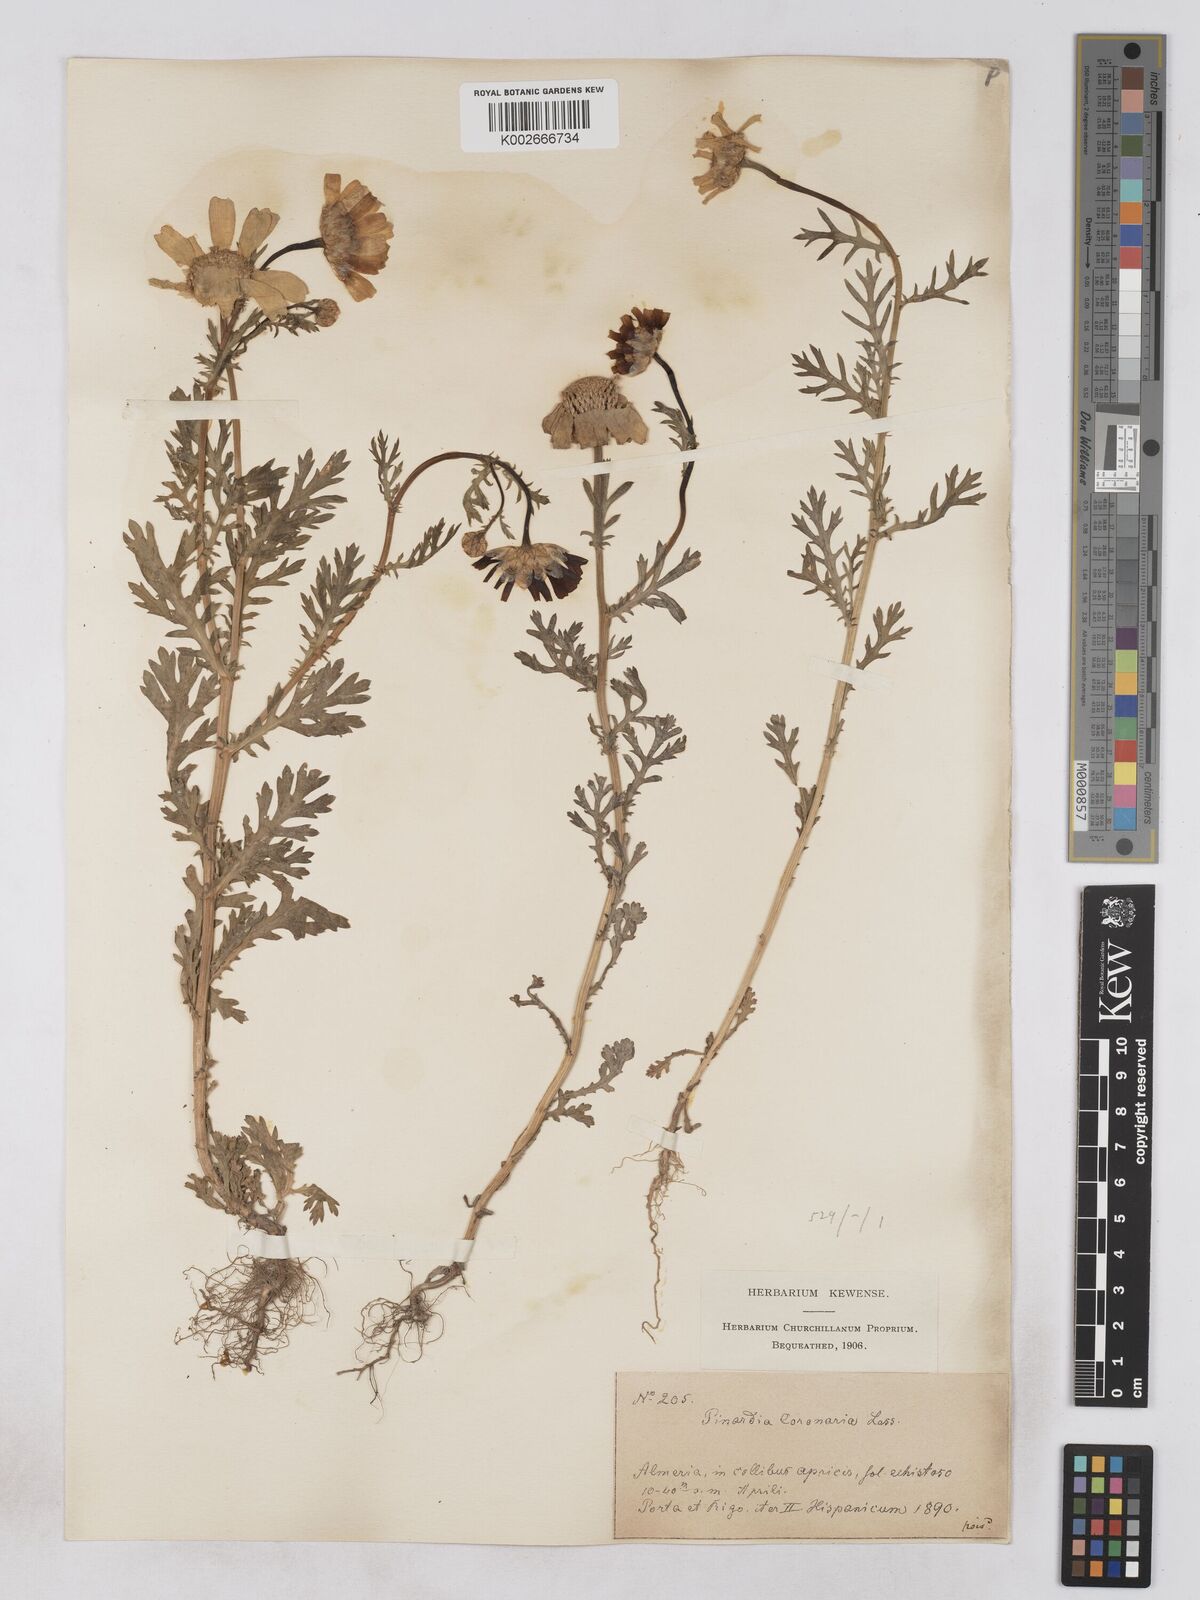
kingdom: Plantae
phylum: Tracheophyta
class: Magnoliopsida
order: Asterales
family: Asteraceae
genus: Glebionis
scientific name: Glebionis
